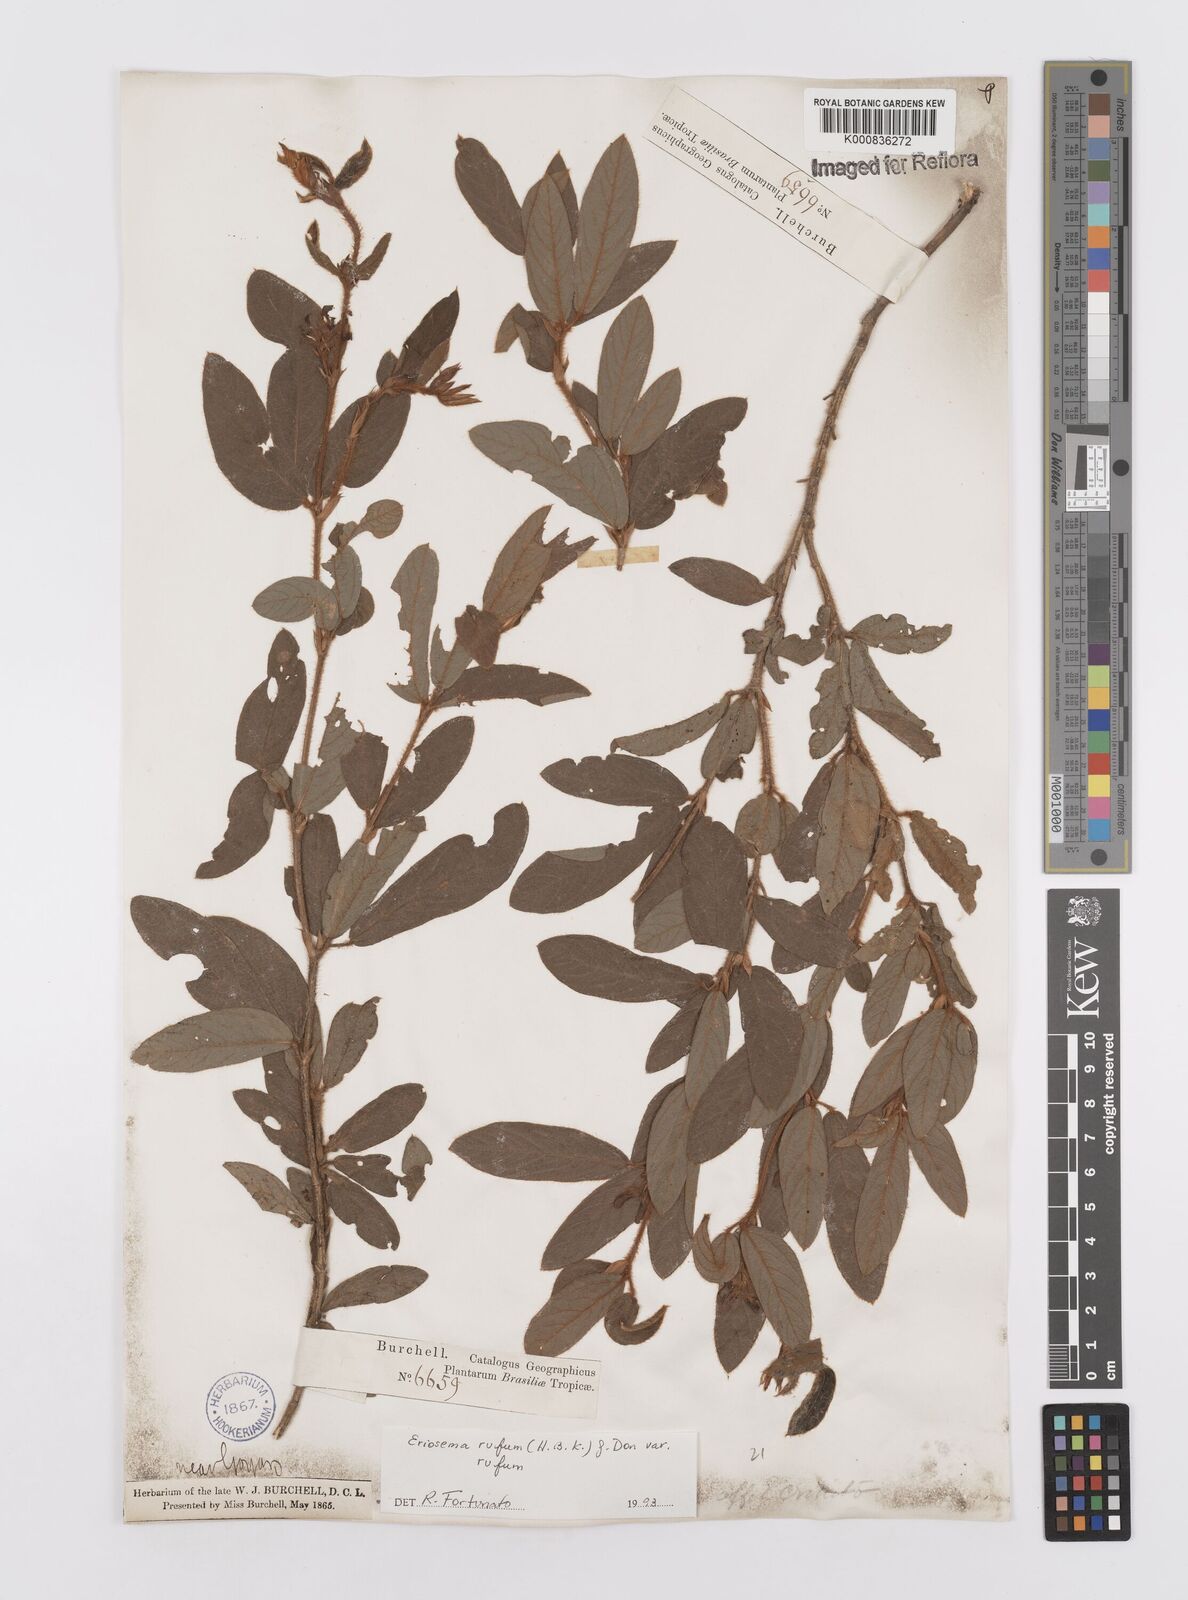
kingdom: Plantae
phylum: Tracheophyta
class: Magnoliopsida
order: Fabales
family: Fabaceae
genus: Eriosema
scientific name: Eriosema rufum
